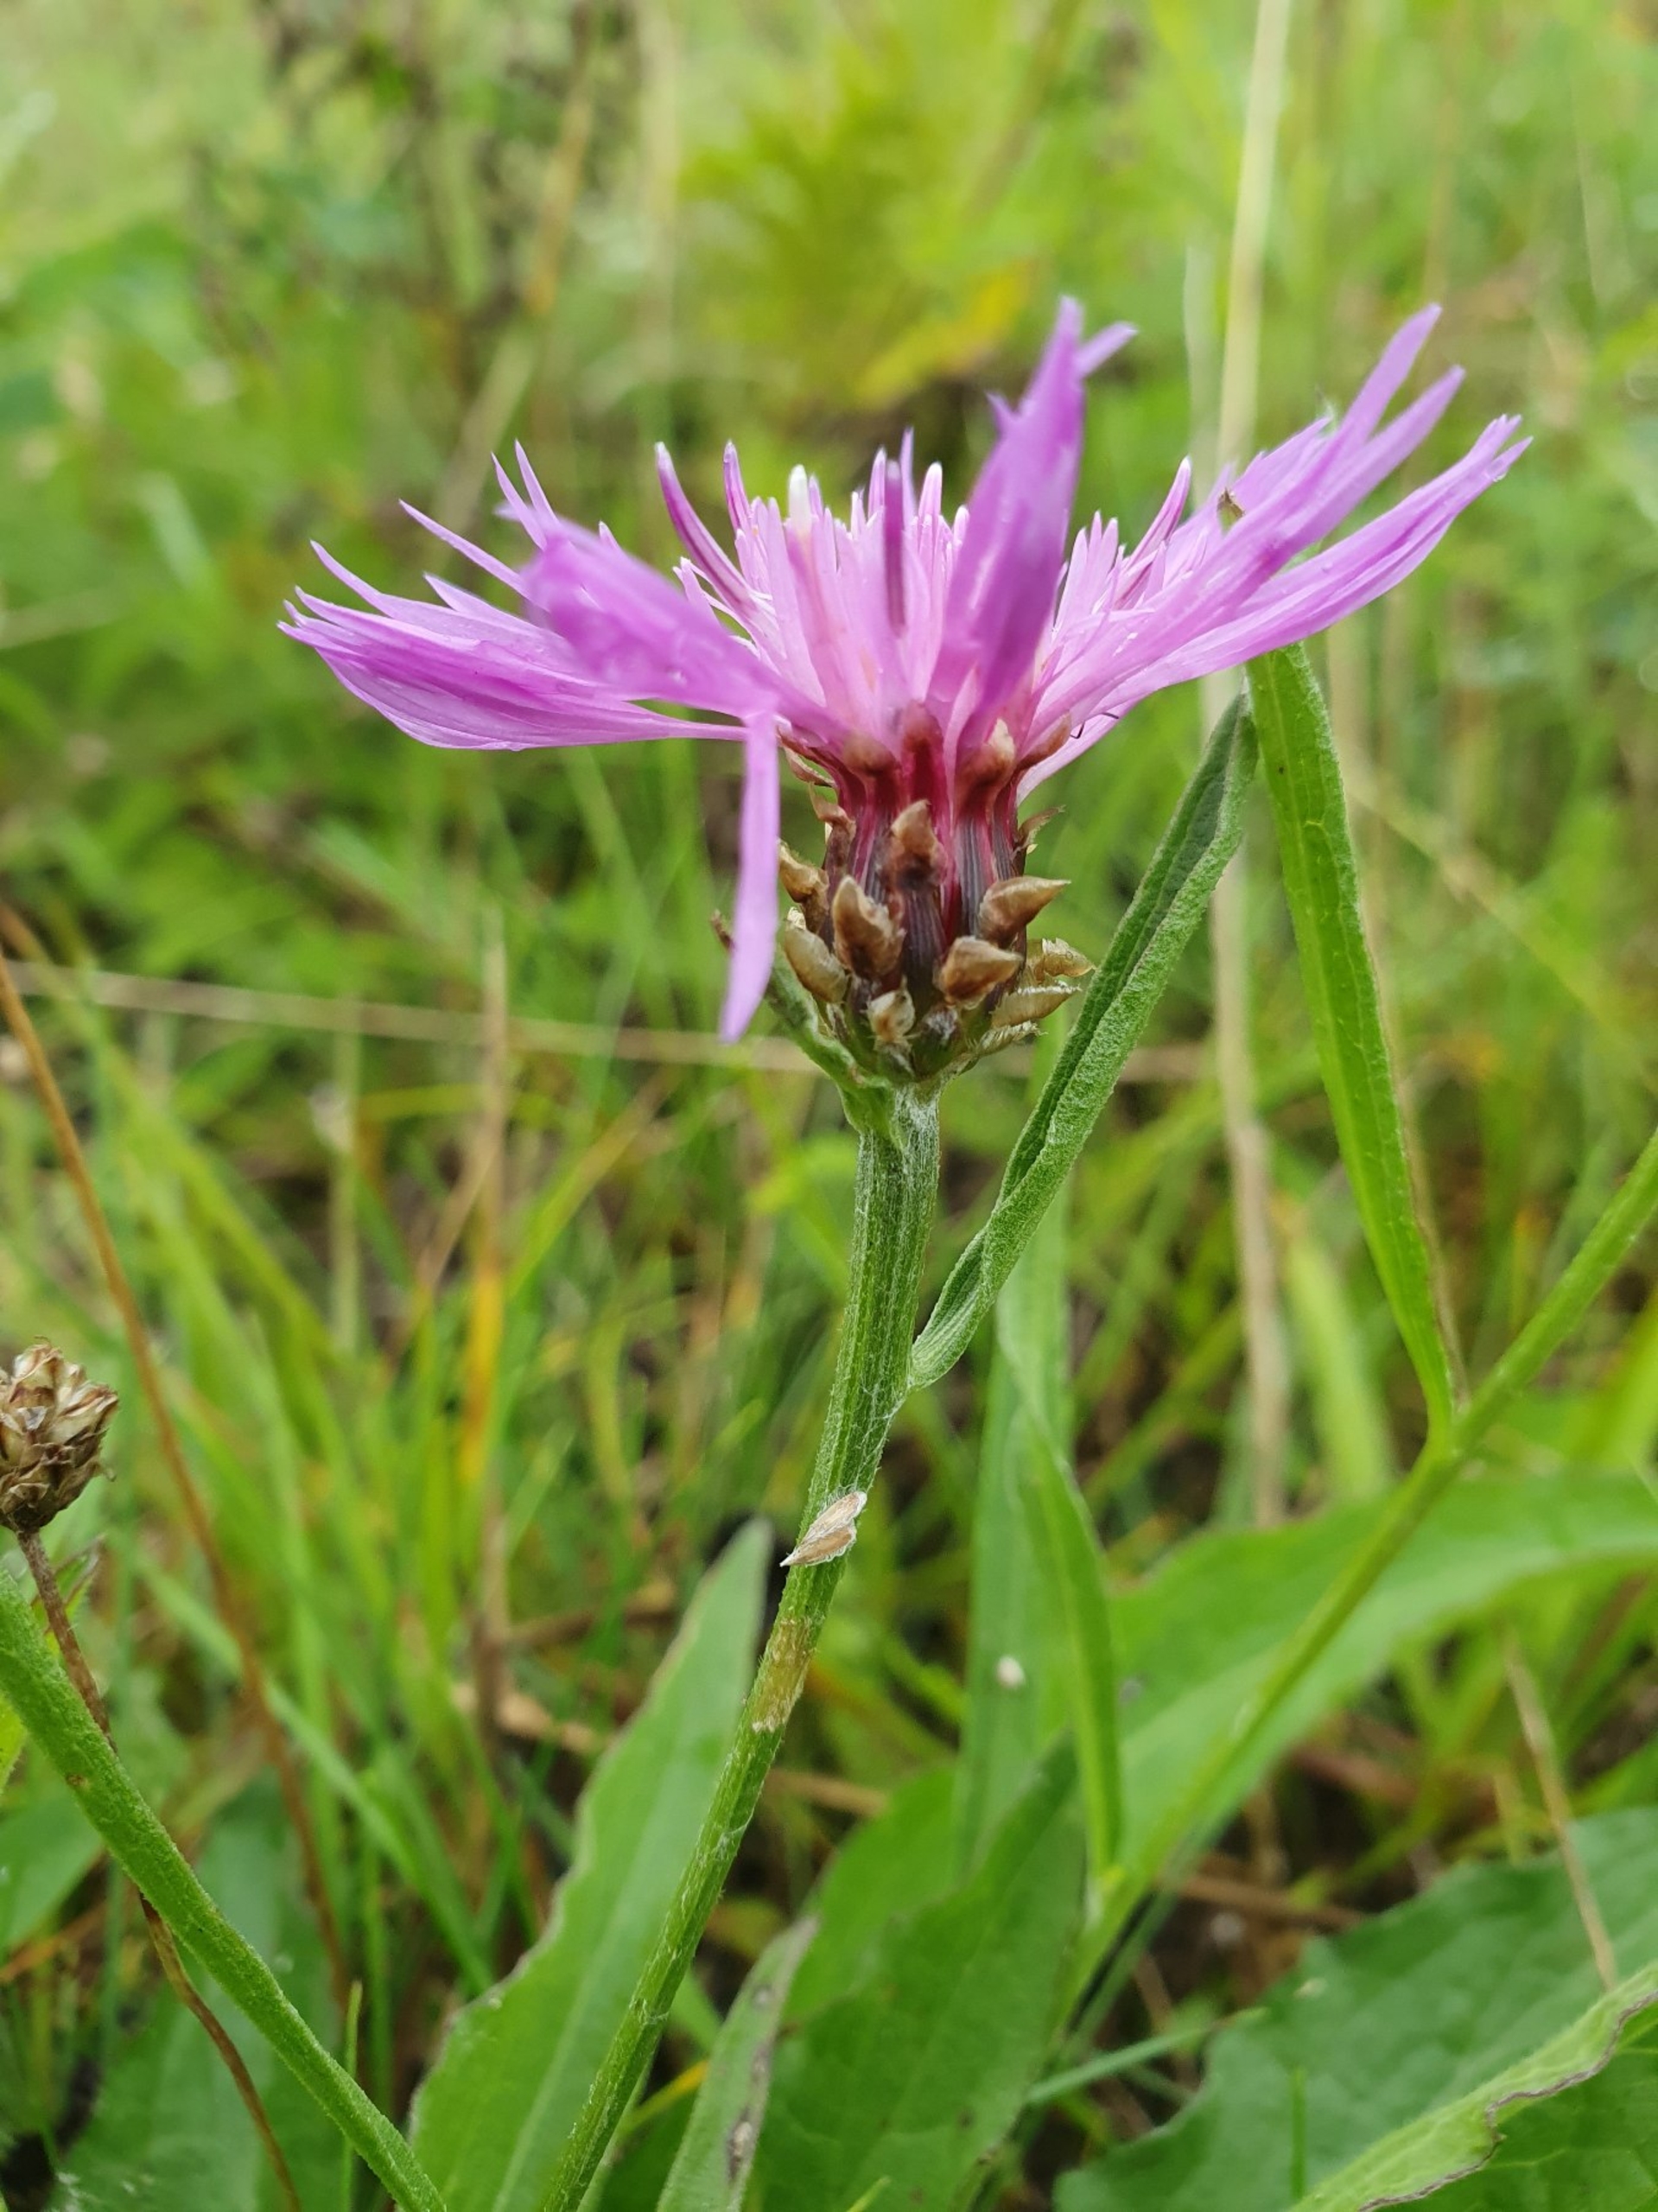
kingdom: Plantae
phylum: Tracheophyta
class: Magnoliopsida
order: Asterales
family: Asteraceae
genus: Centaurea
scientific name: Centaurea jacea
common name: Almindelig knopurt
